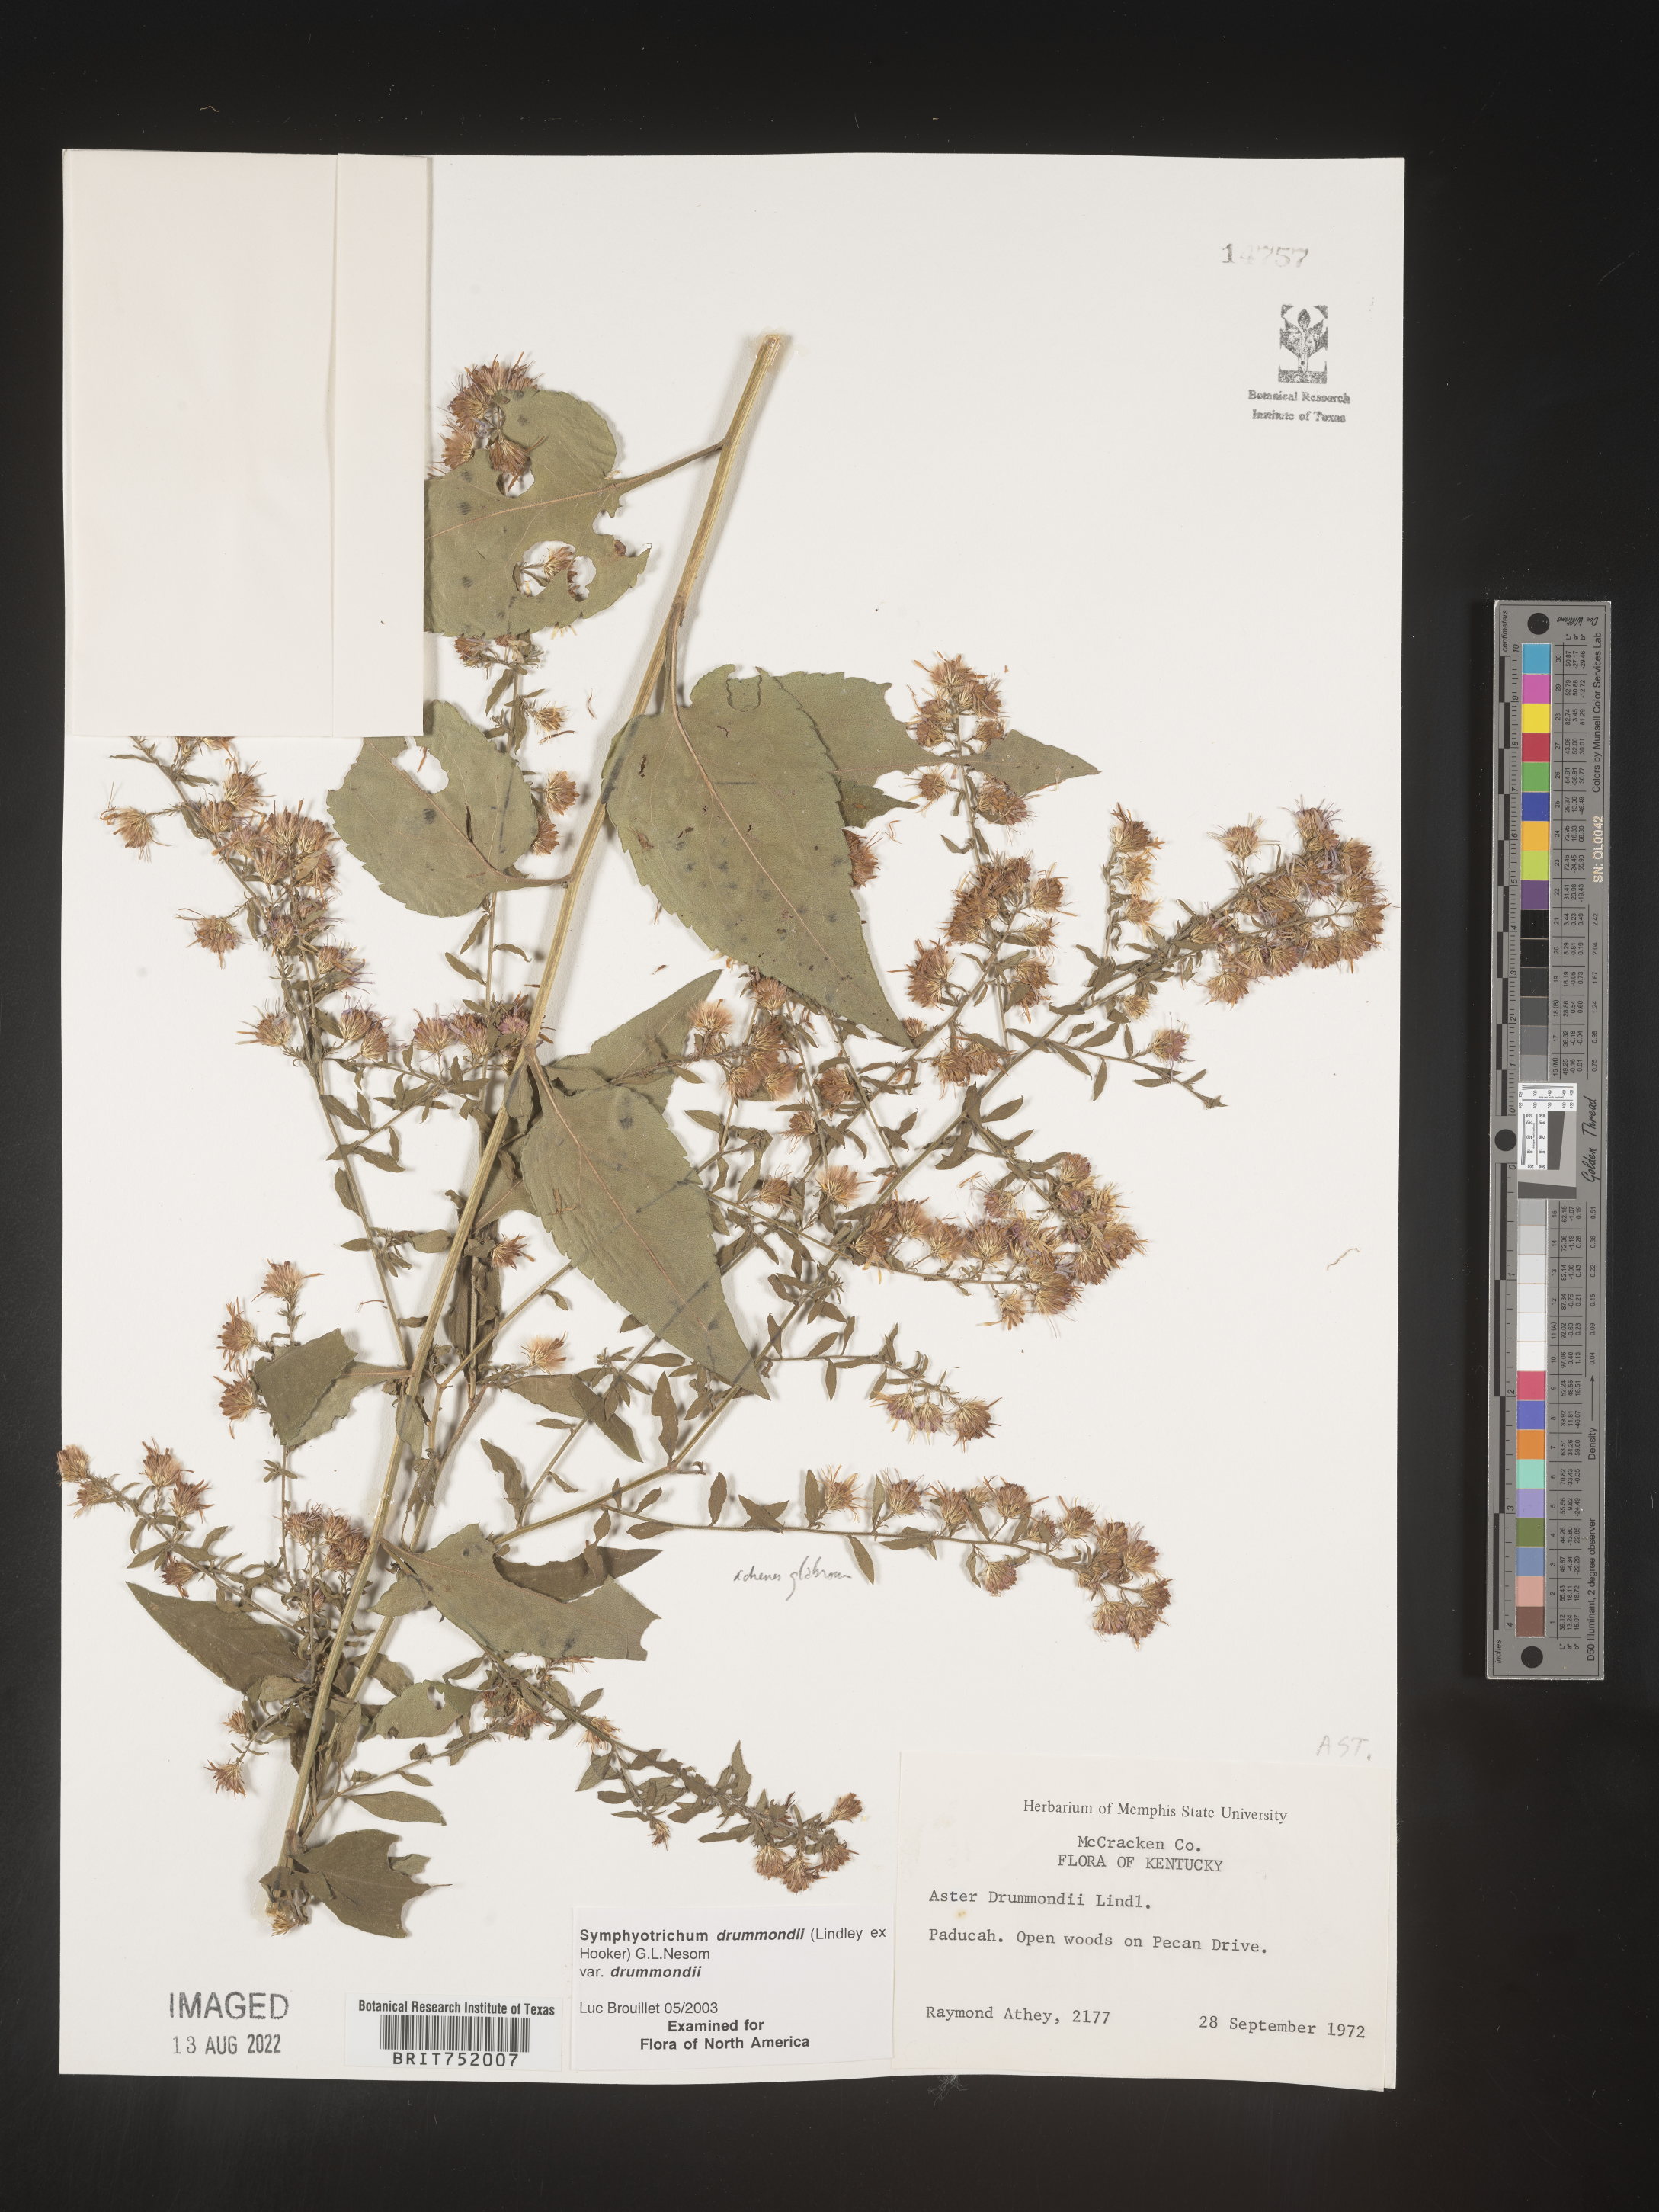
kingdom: Plantae
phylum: Tracheophyta
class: Magnoliopsida
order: Asterales
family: Asteraceae
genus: Symphyotrichum
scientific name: Symphyotrichum drummondii
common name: Drummond's aster
